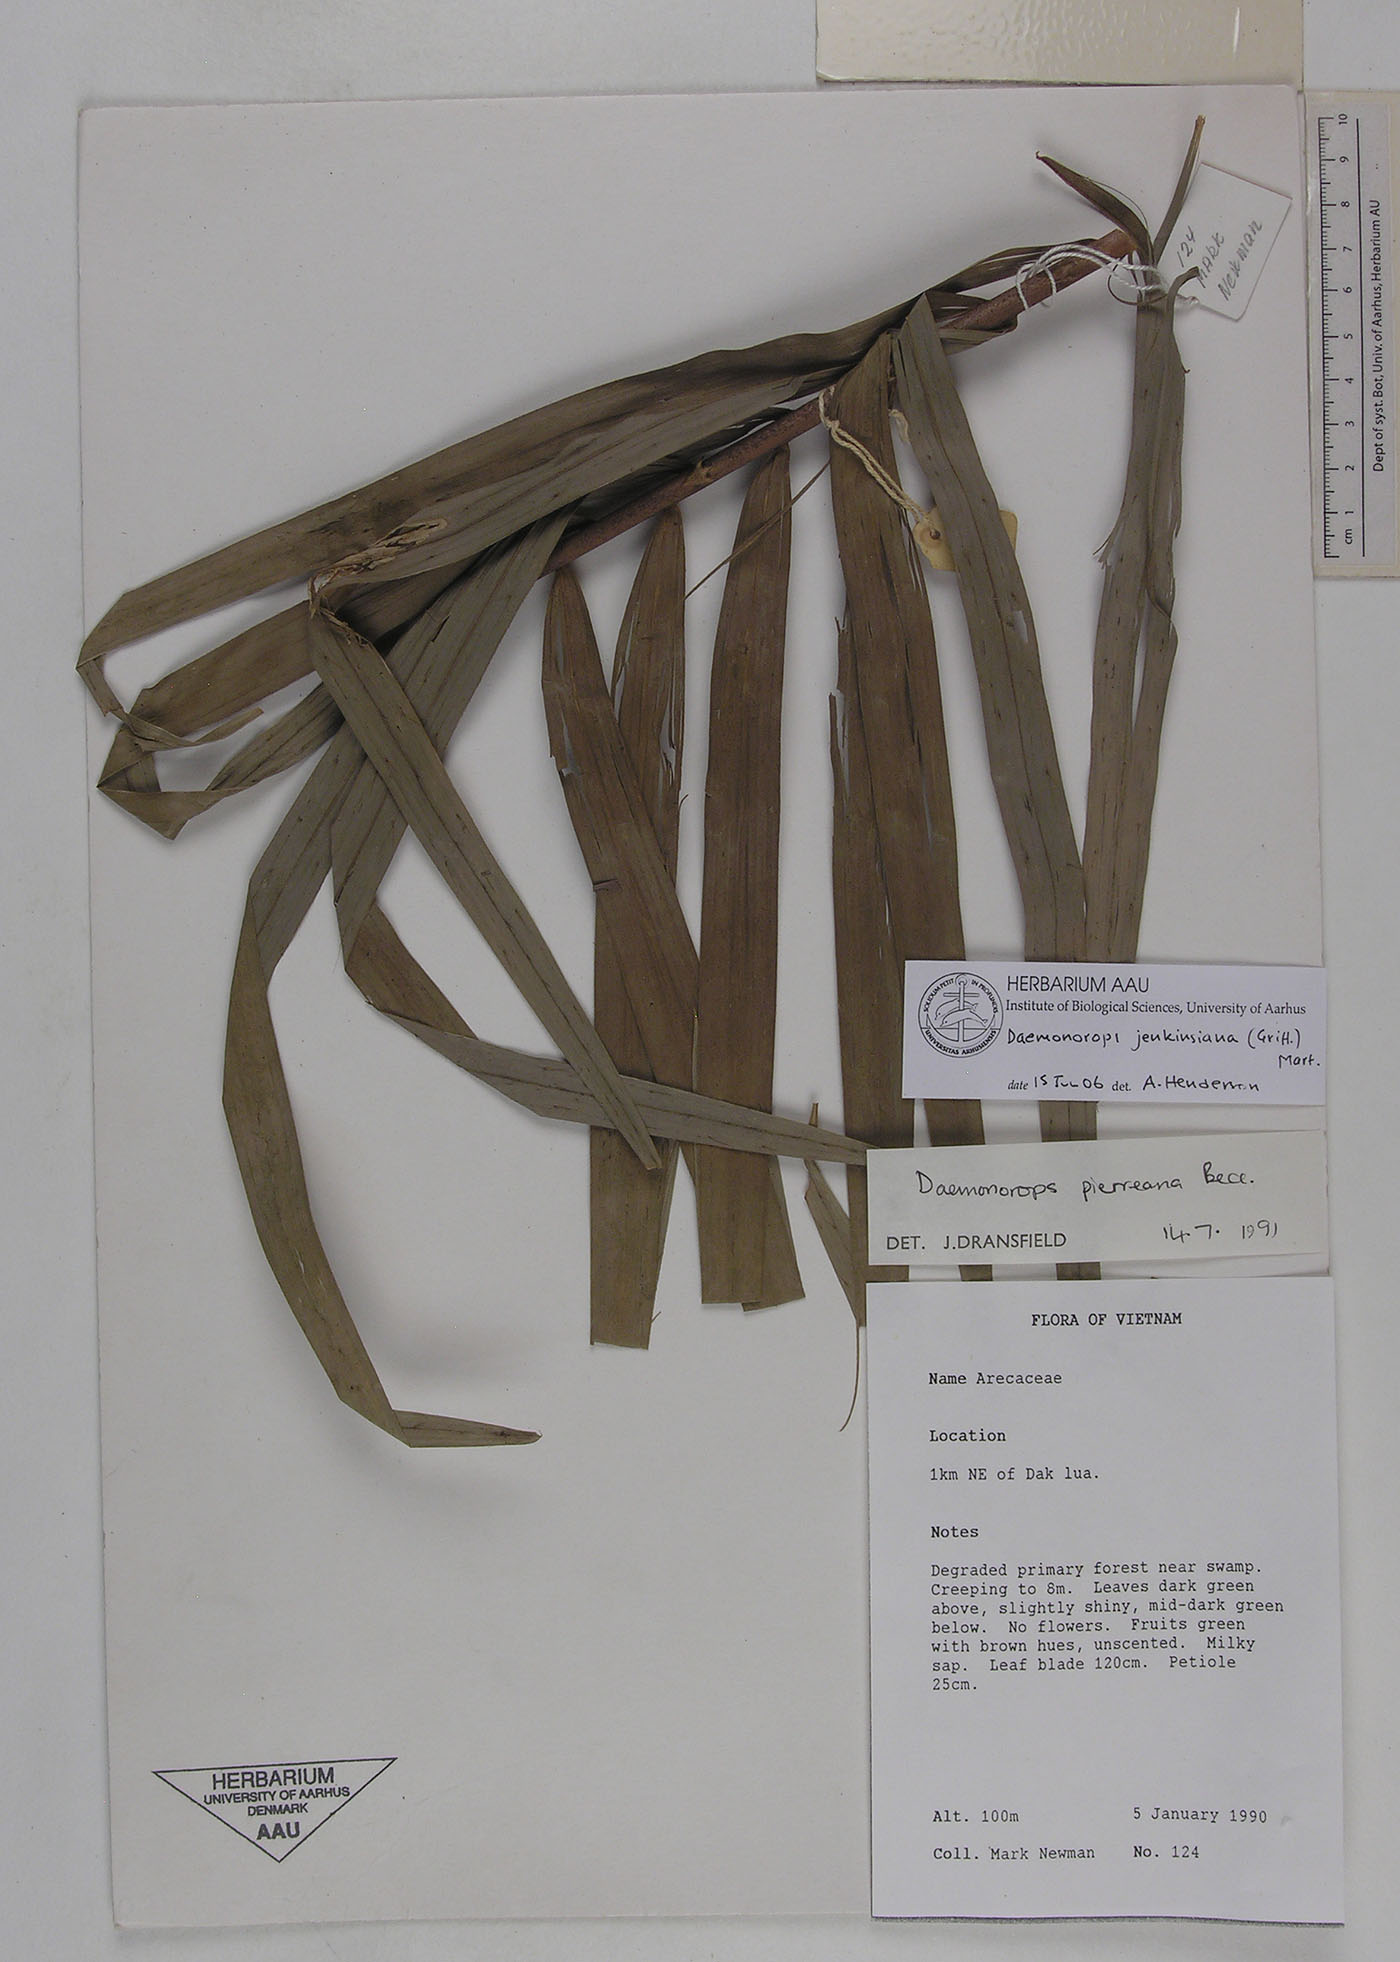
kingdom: Plantae
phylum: Tracheophyta
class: Liliopsida
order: Arecales
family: Arecaceae
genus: Calamus
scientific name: Calamus melanochaetes
